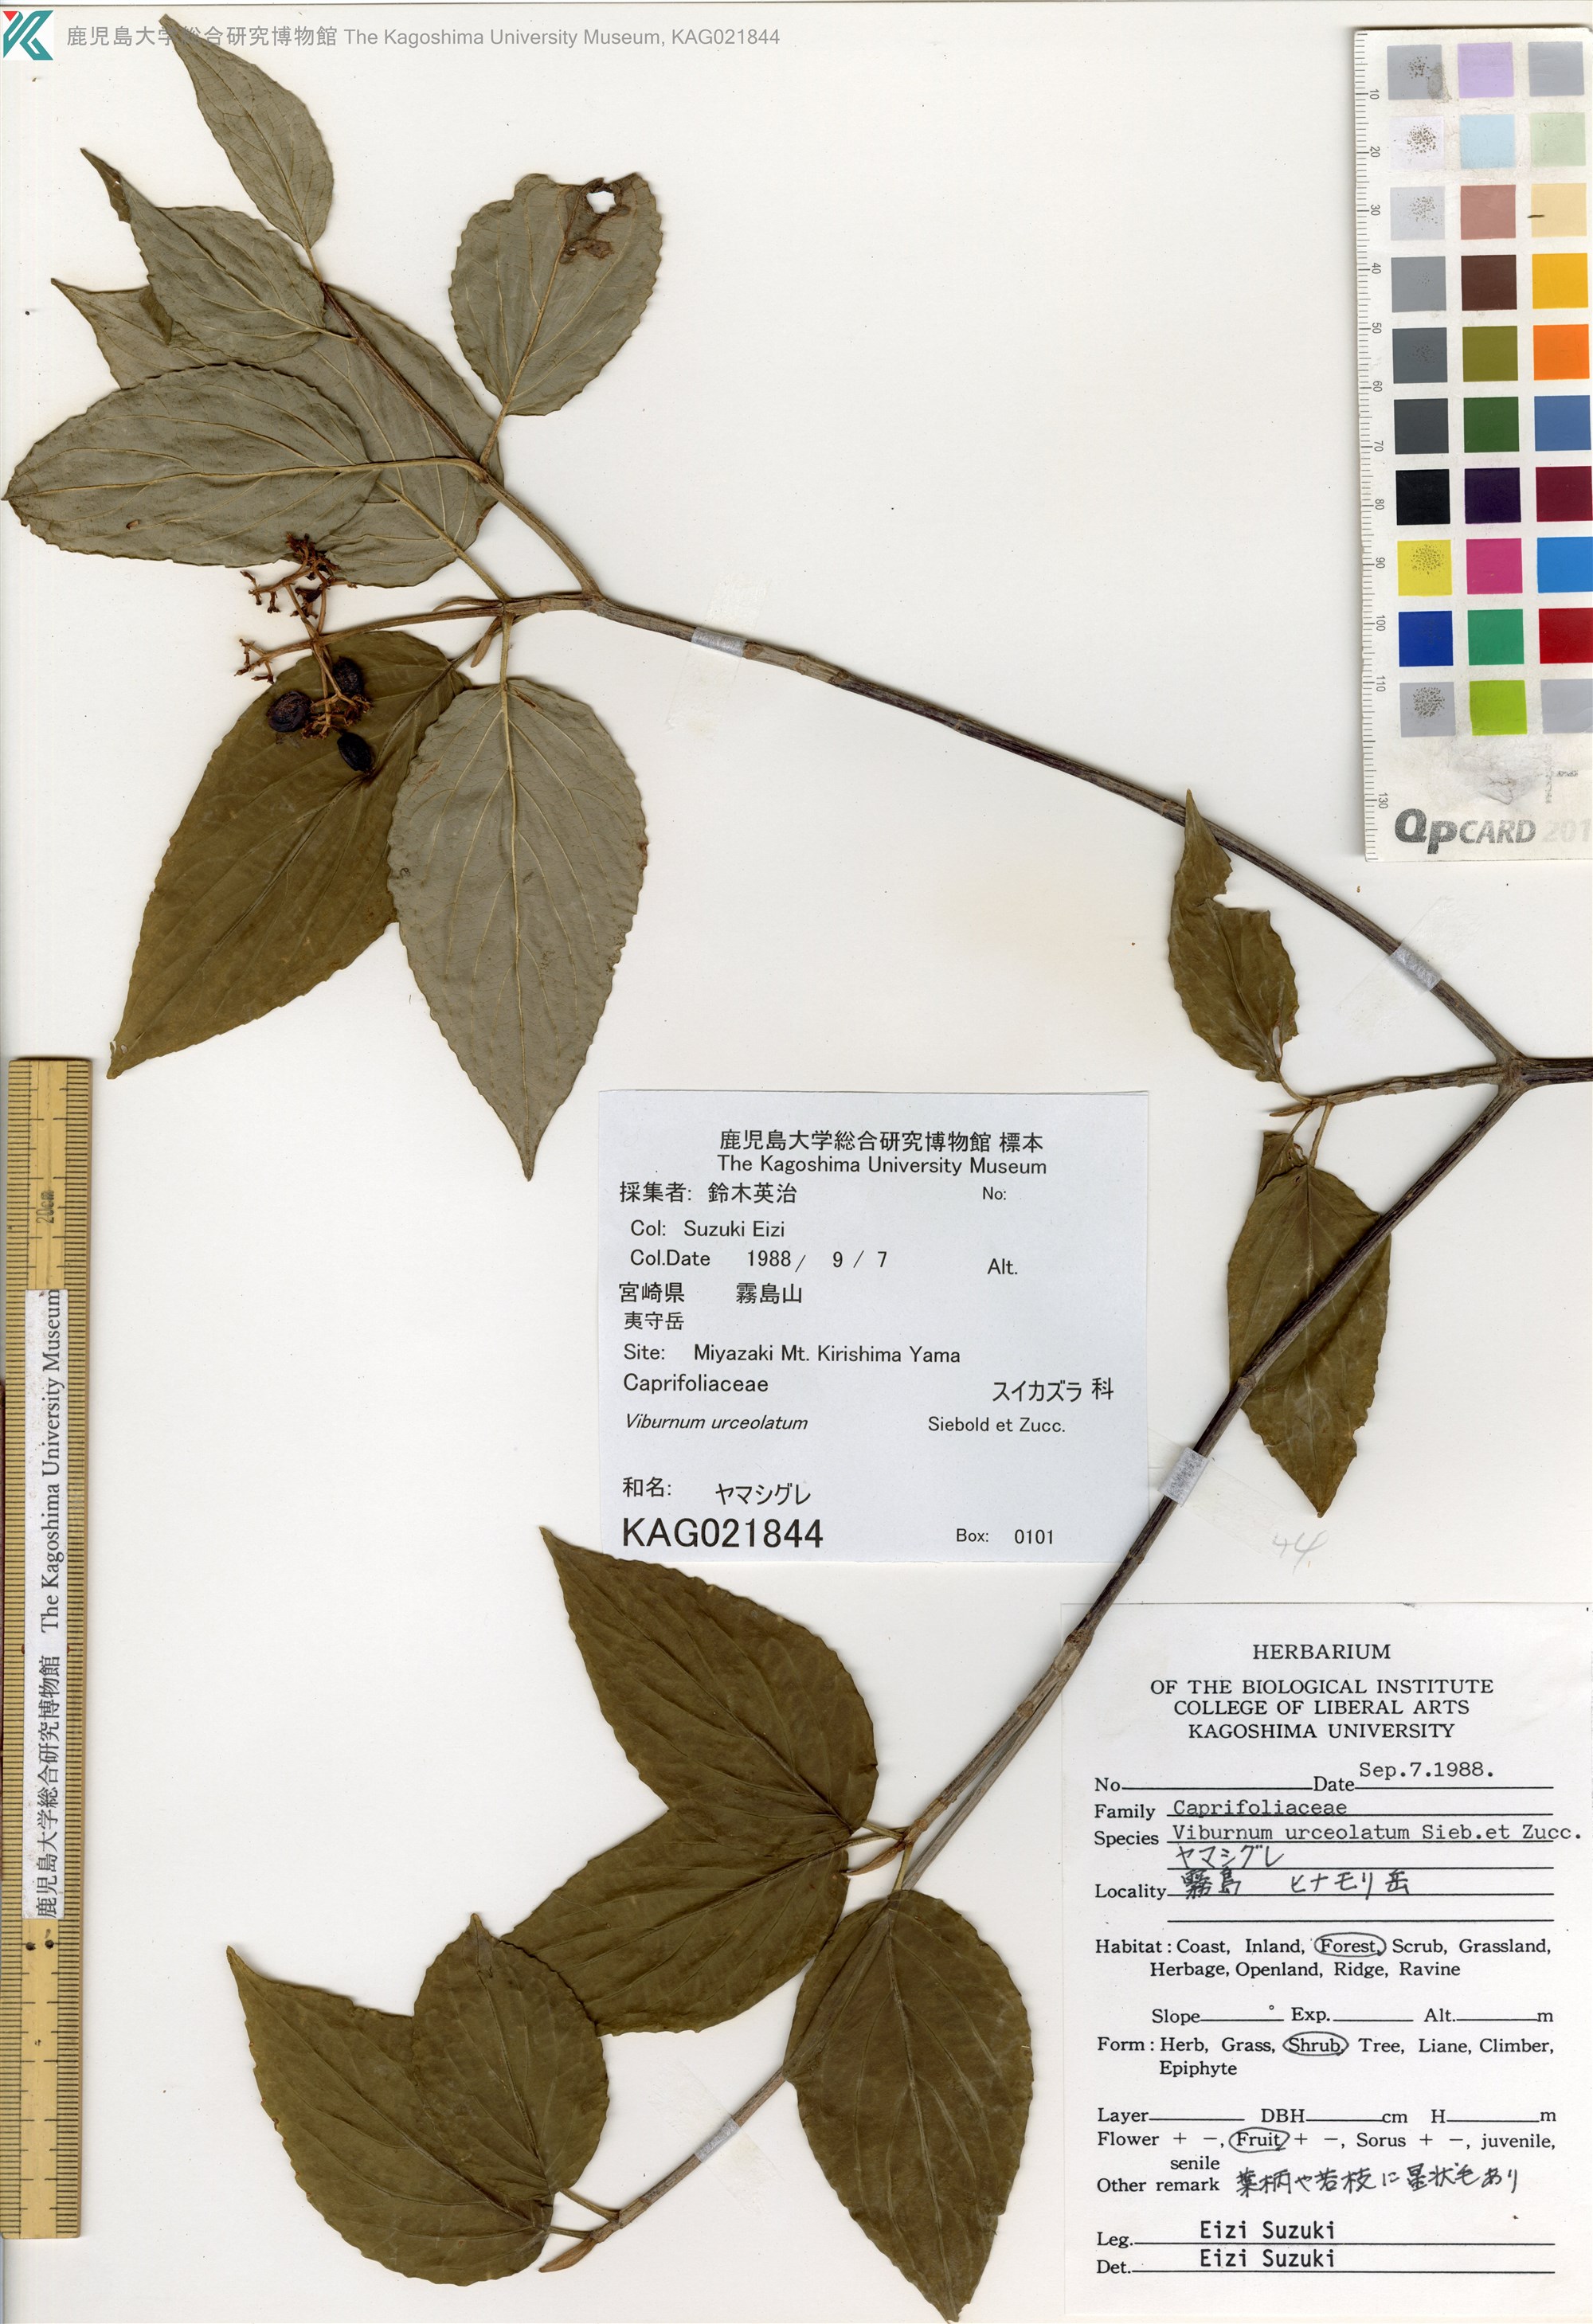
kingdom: Plantae
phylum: Tracheophyta
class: Magnoliopsida
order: Dipsacales
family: Viburnaceae
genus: Viburnum
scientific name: Viburnum urceolatum
